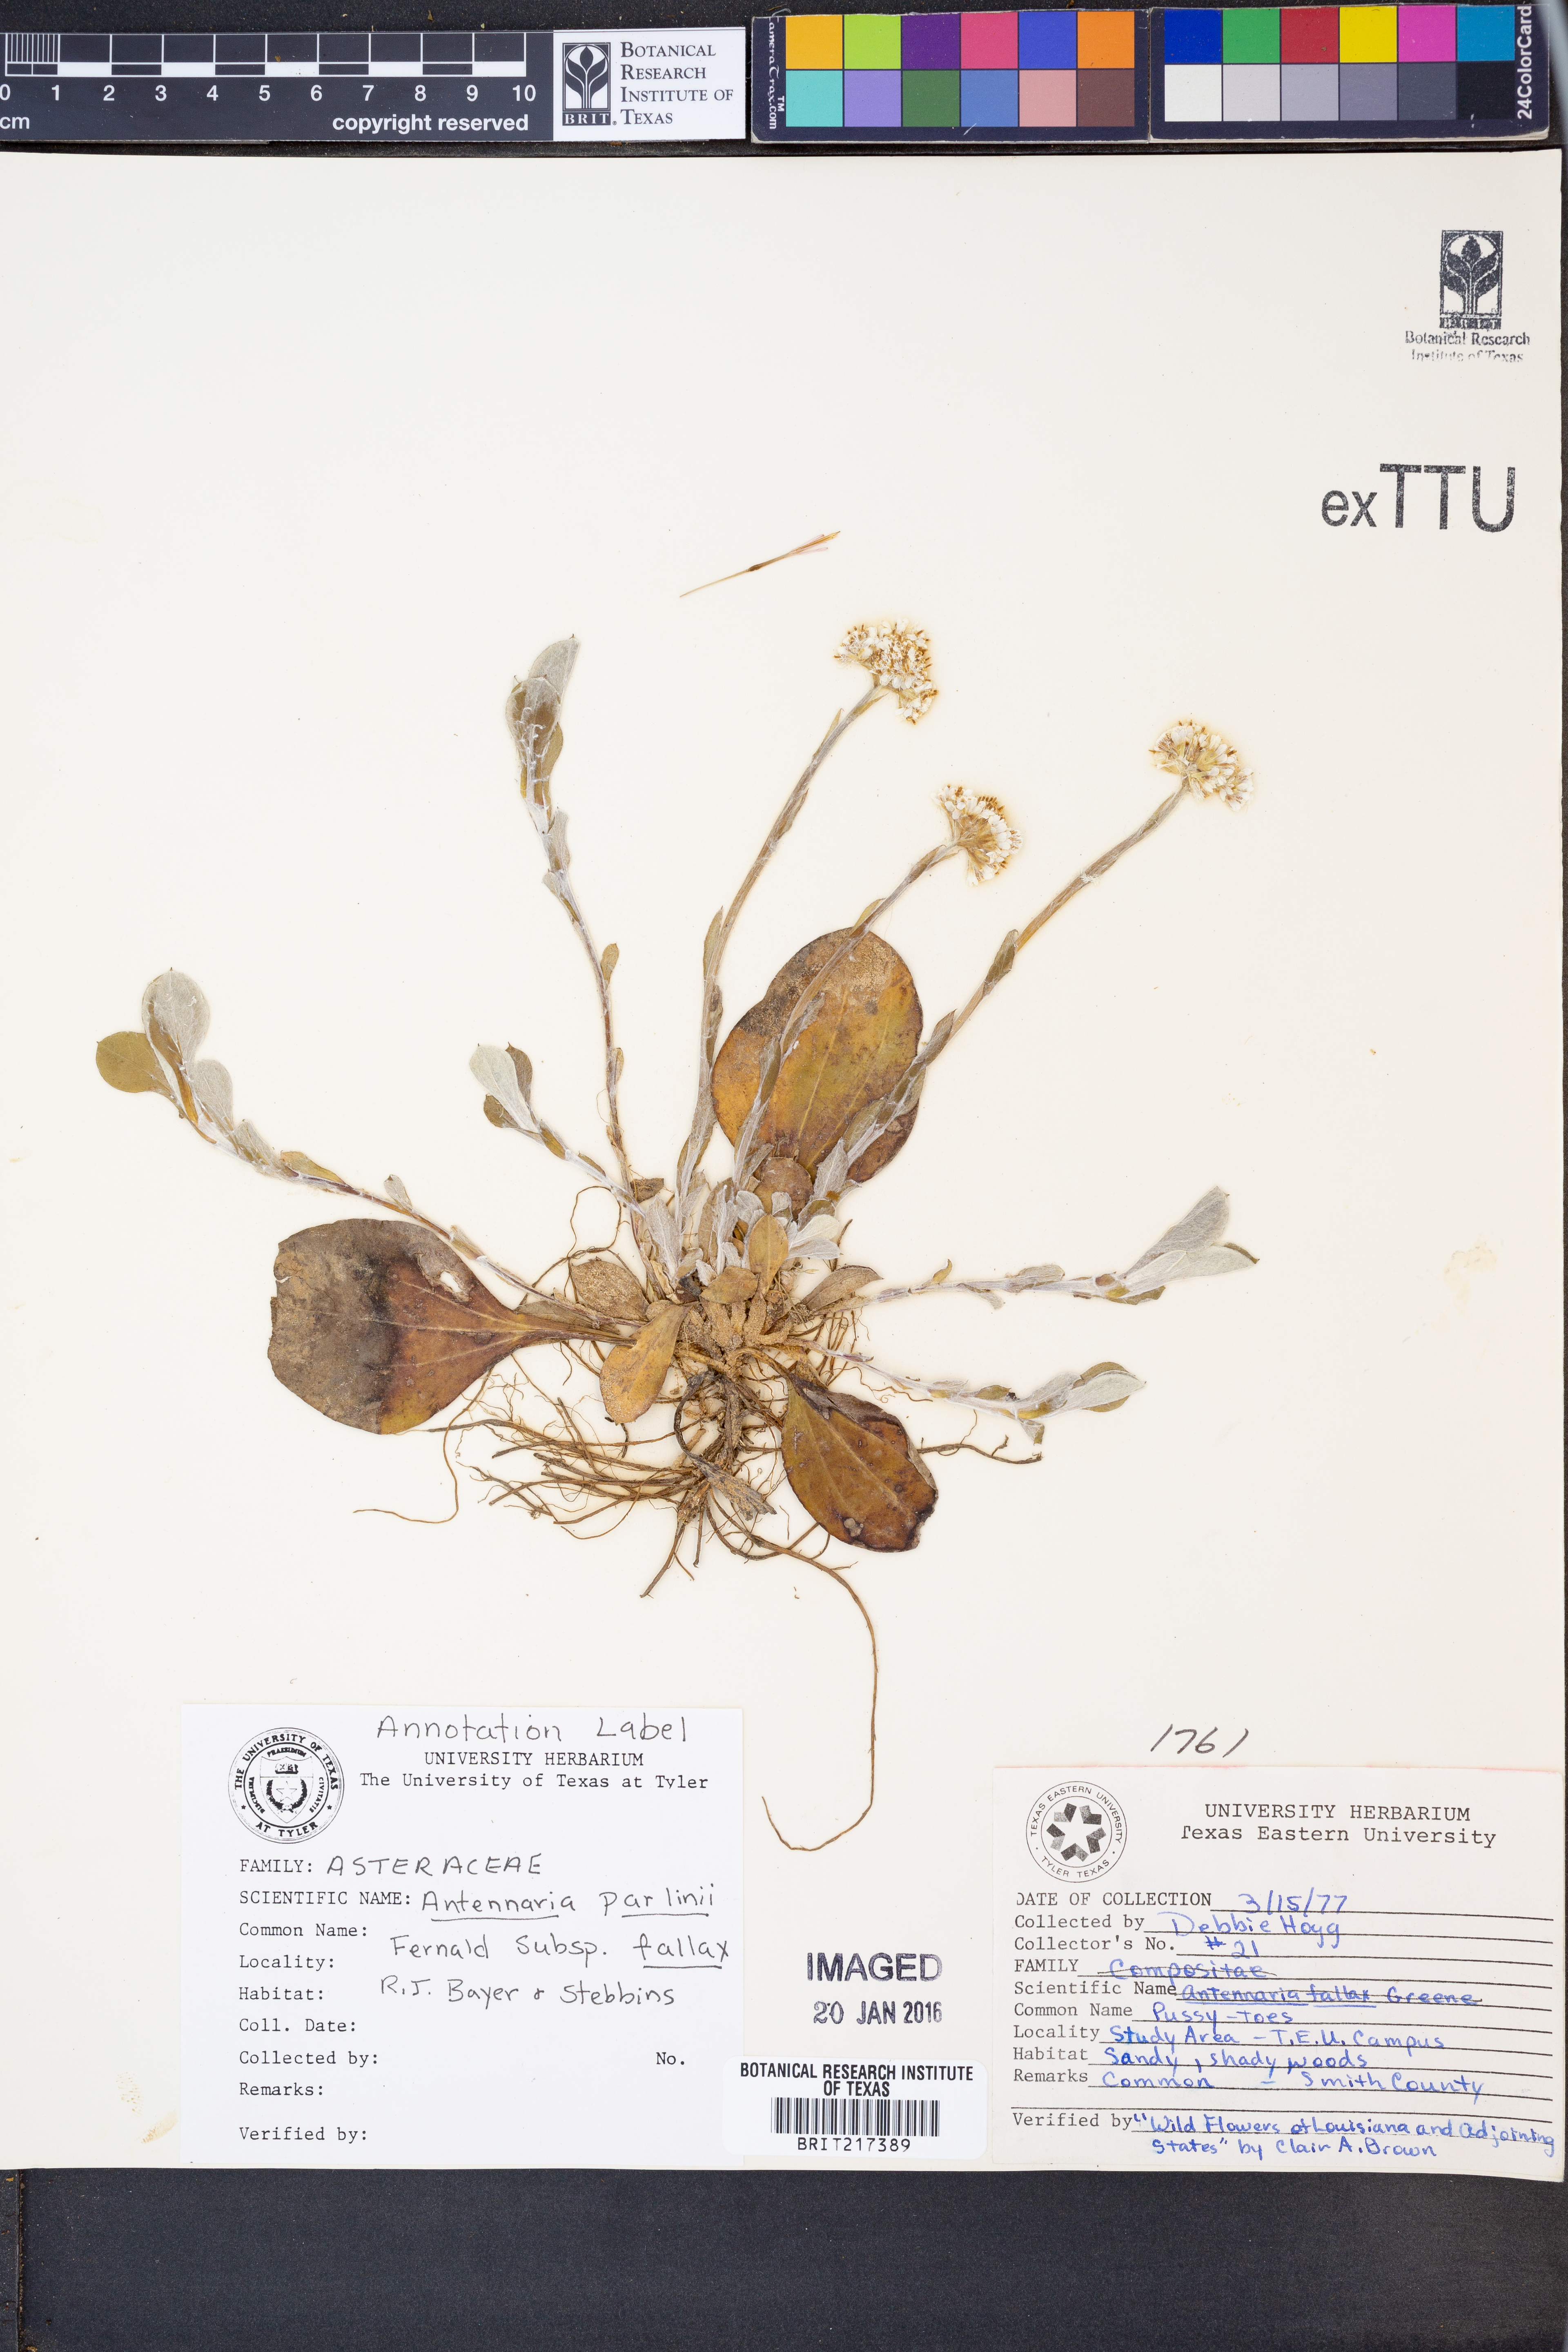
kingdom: Plantae
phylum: Tracheophyta
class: Magnoliopsida
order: Asterales
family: Asteraceae
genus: Antennaria
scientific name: Antennaria parlinii
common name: Parlin's pussytoes
